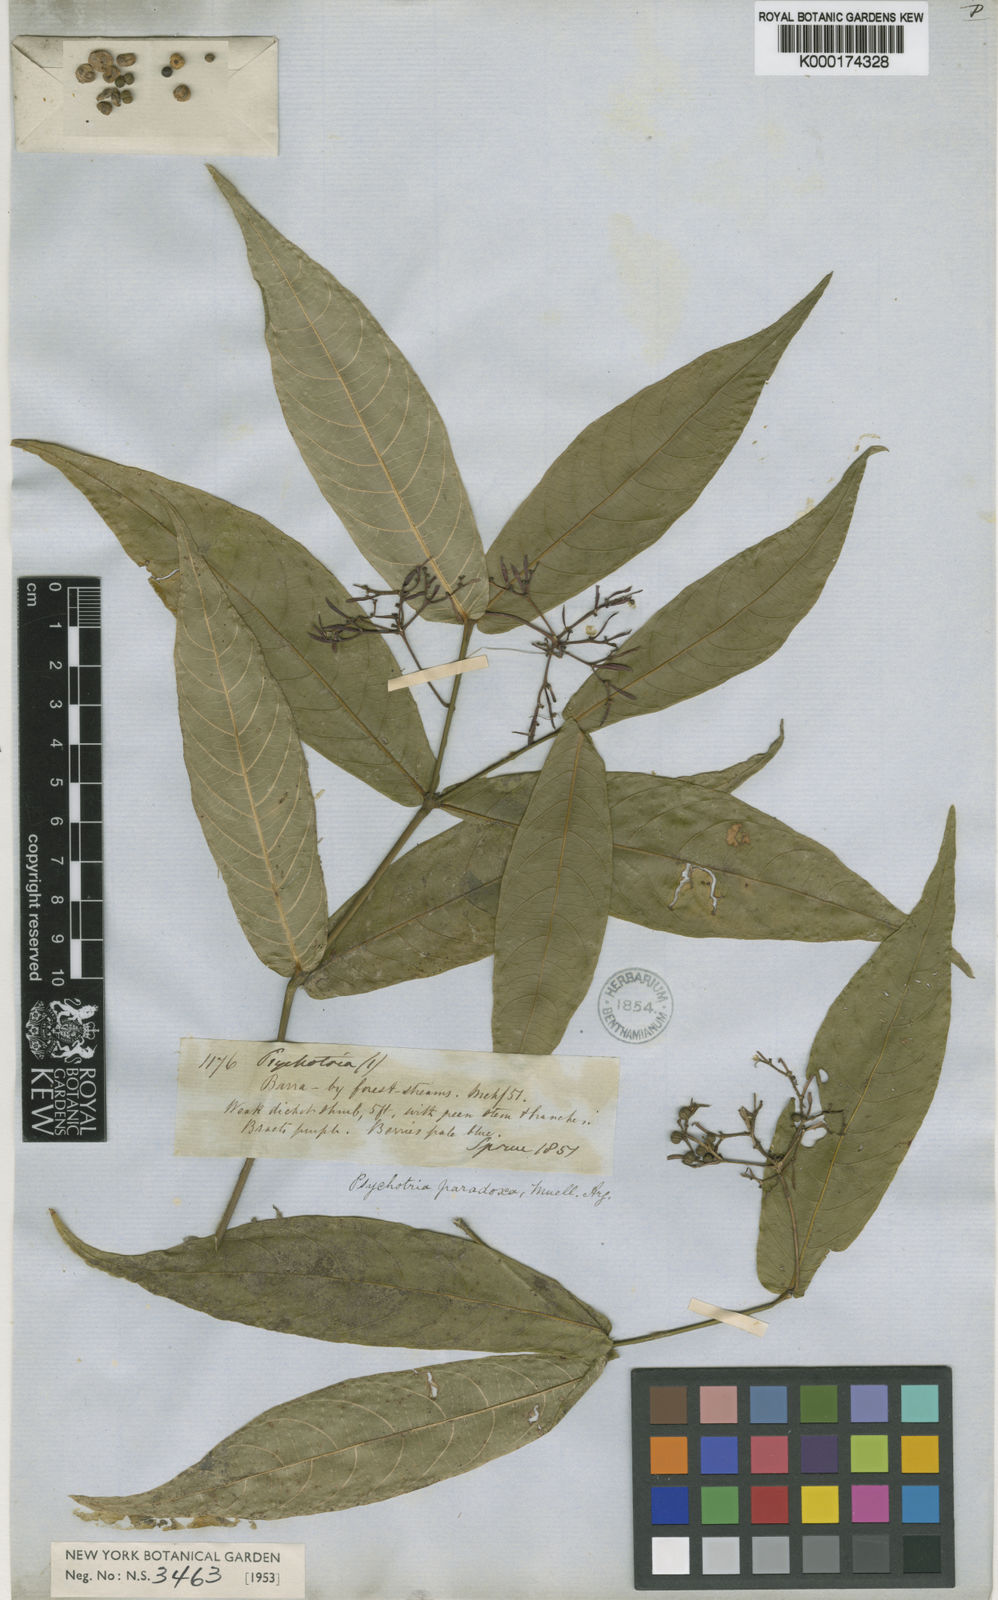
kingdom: Plantae
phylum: Tracheophyta
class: Magnoliopsida
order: Gentianales
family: Rubiaceae
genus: Psychotria
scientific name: Psychotria
